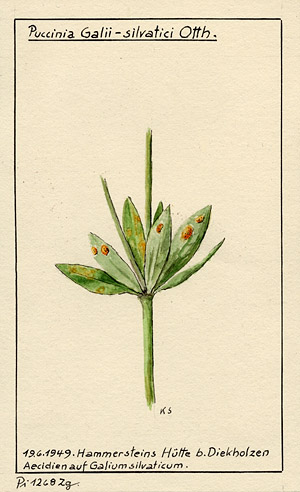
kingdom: Fungi
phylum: Basidiomycota
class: Pucciniomycetes
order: Pucciniales
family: Pucciniaceae
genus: Puccinia
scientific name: Puccinia punctata
